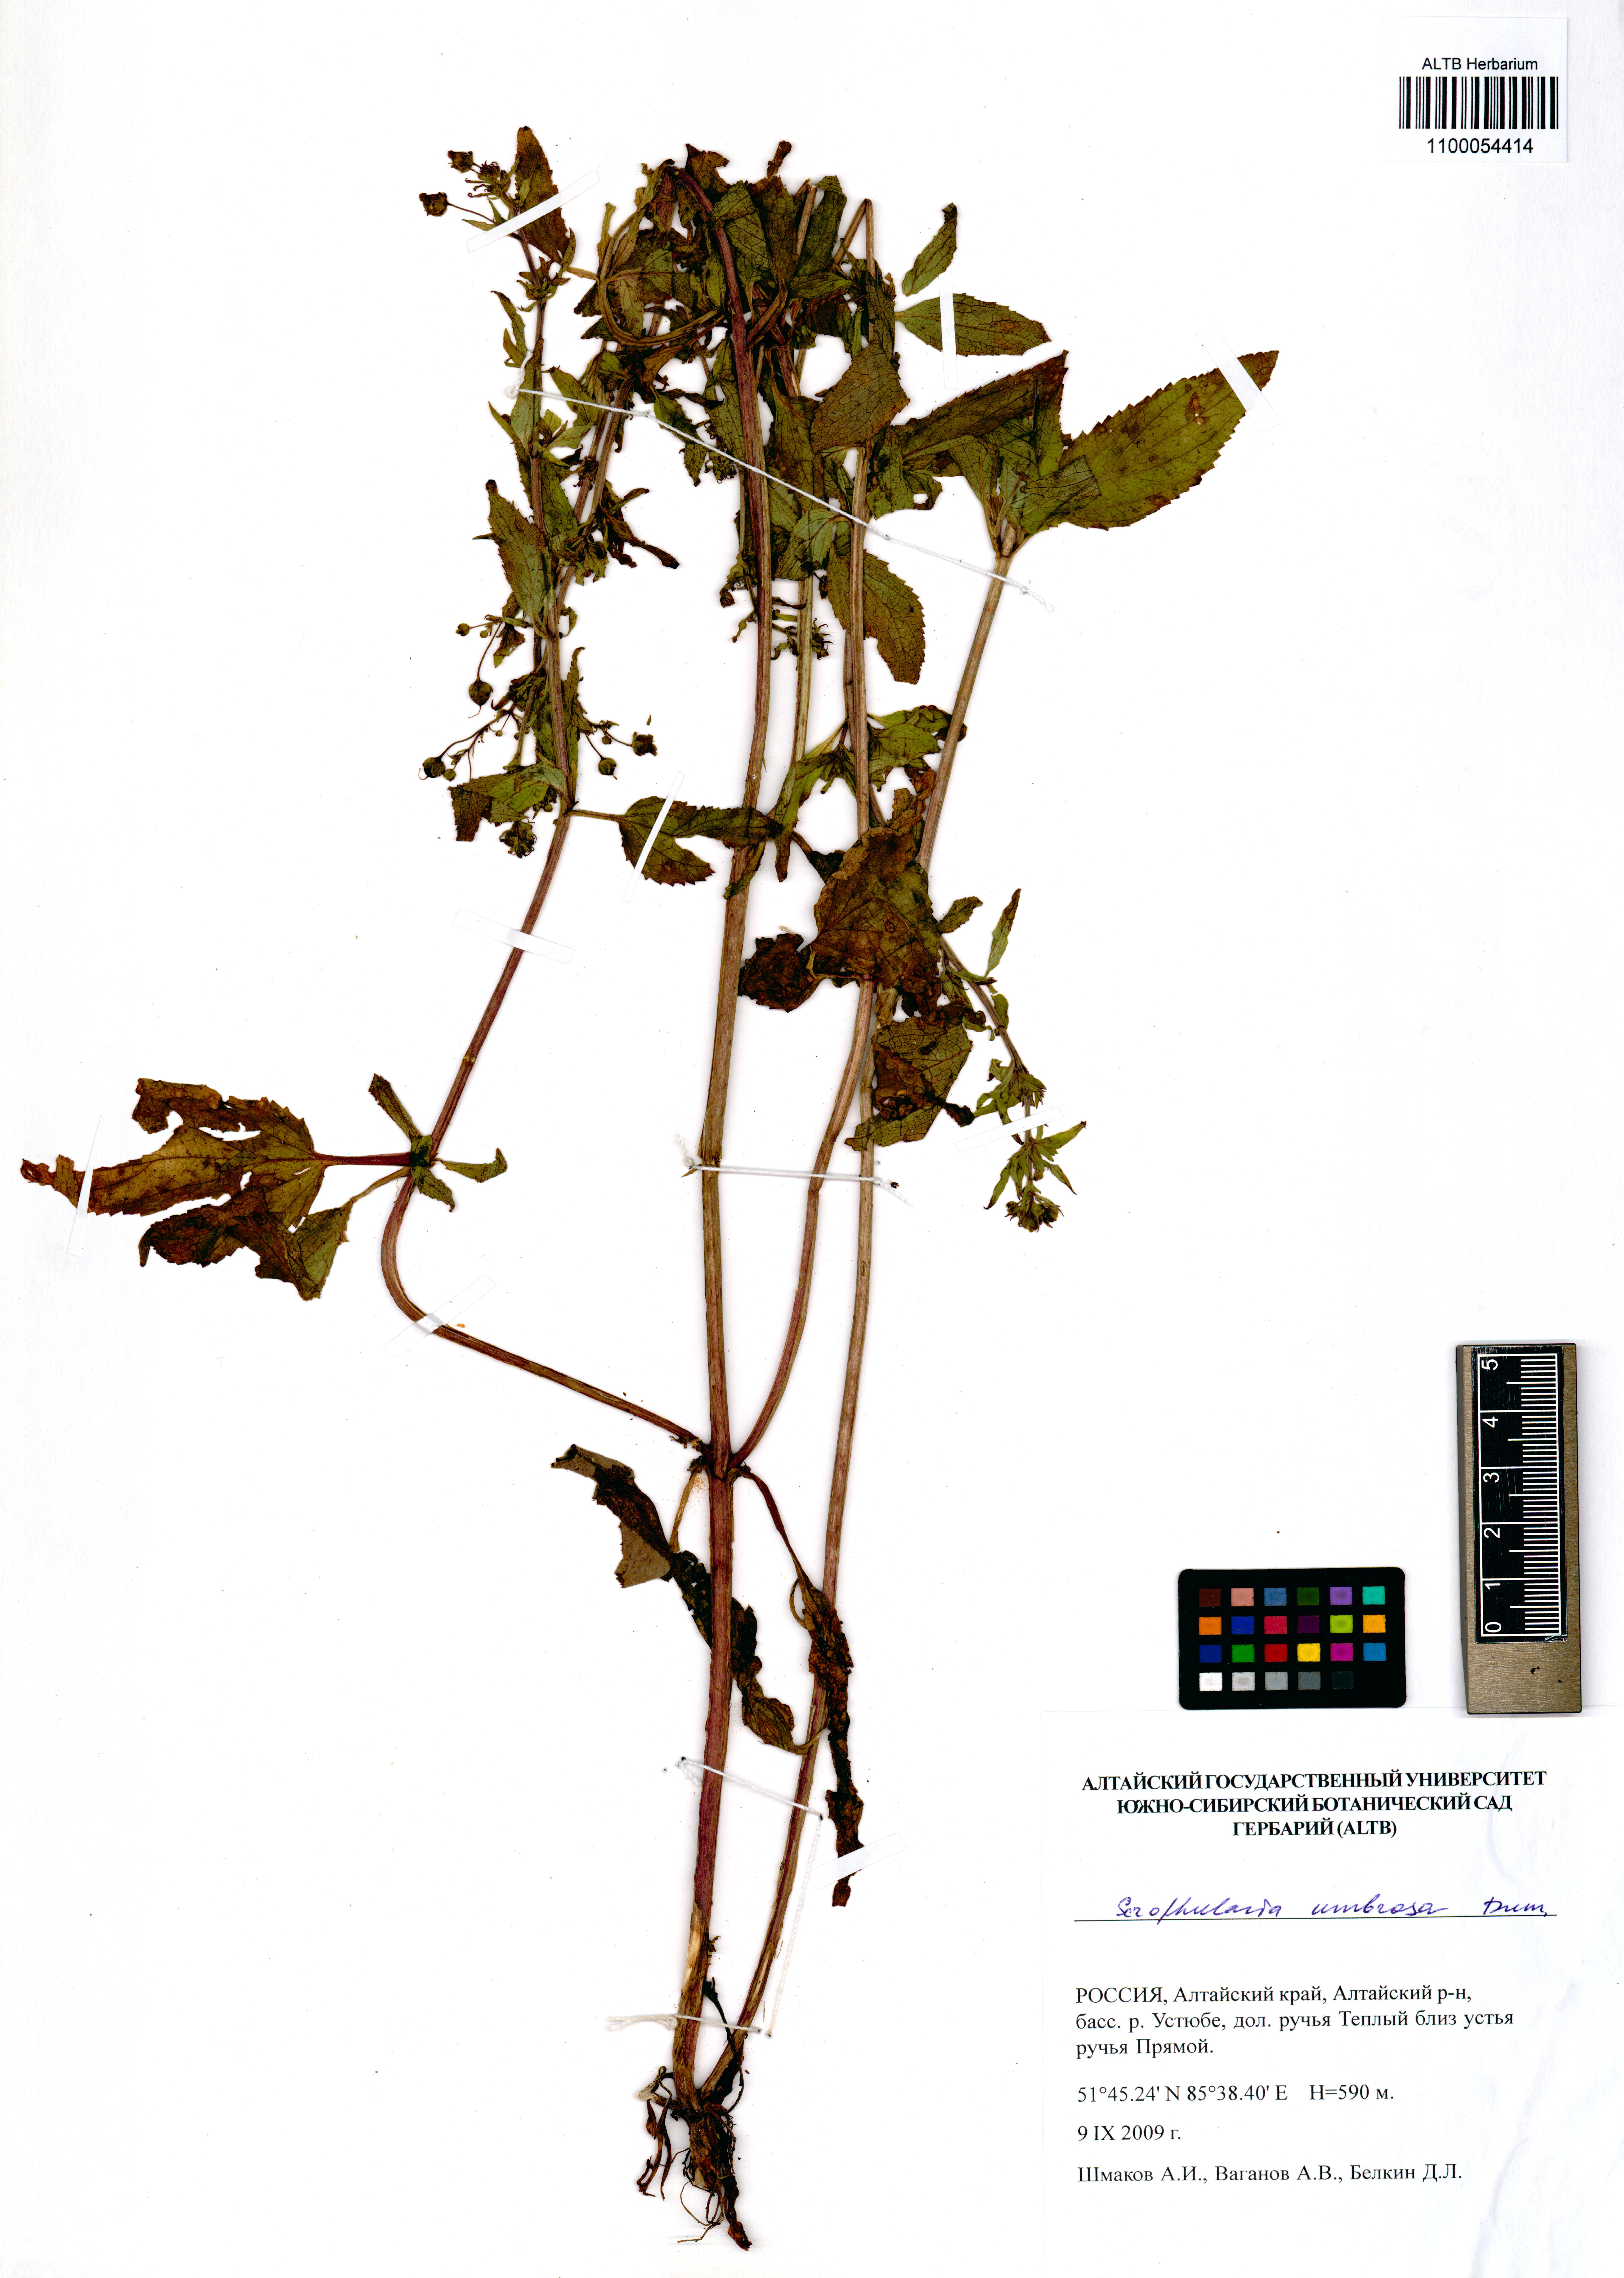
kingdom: Plantae
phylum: Tracheophyta
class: Magnoliopsida
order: Lamiales
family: Scrophulariaceae
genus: Scrophularia
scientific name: Scrophularia umbrosa
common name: Green figwort
